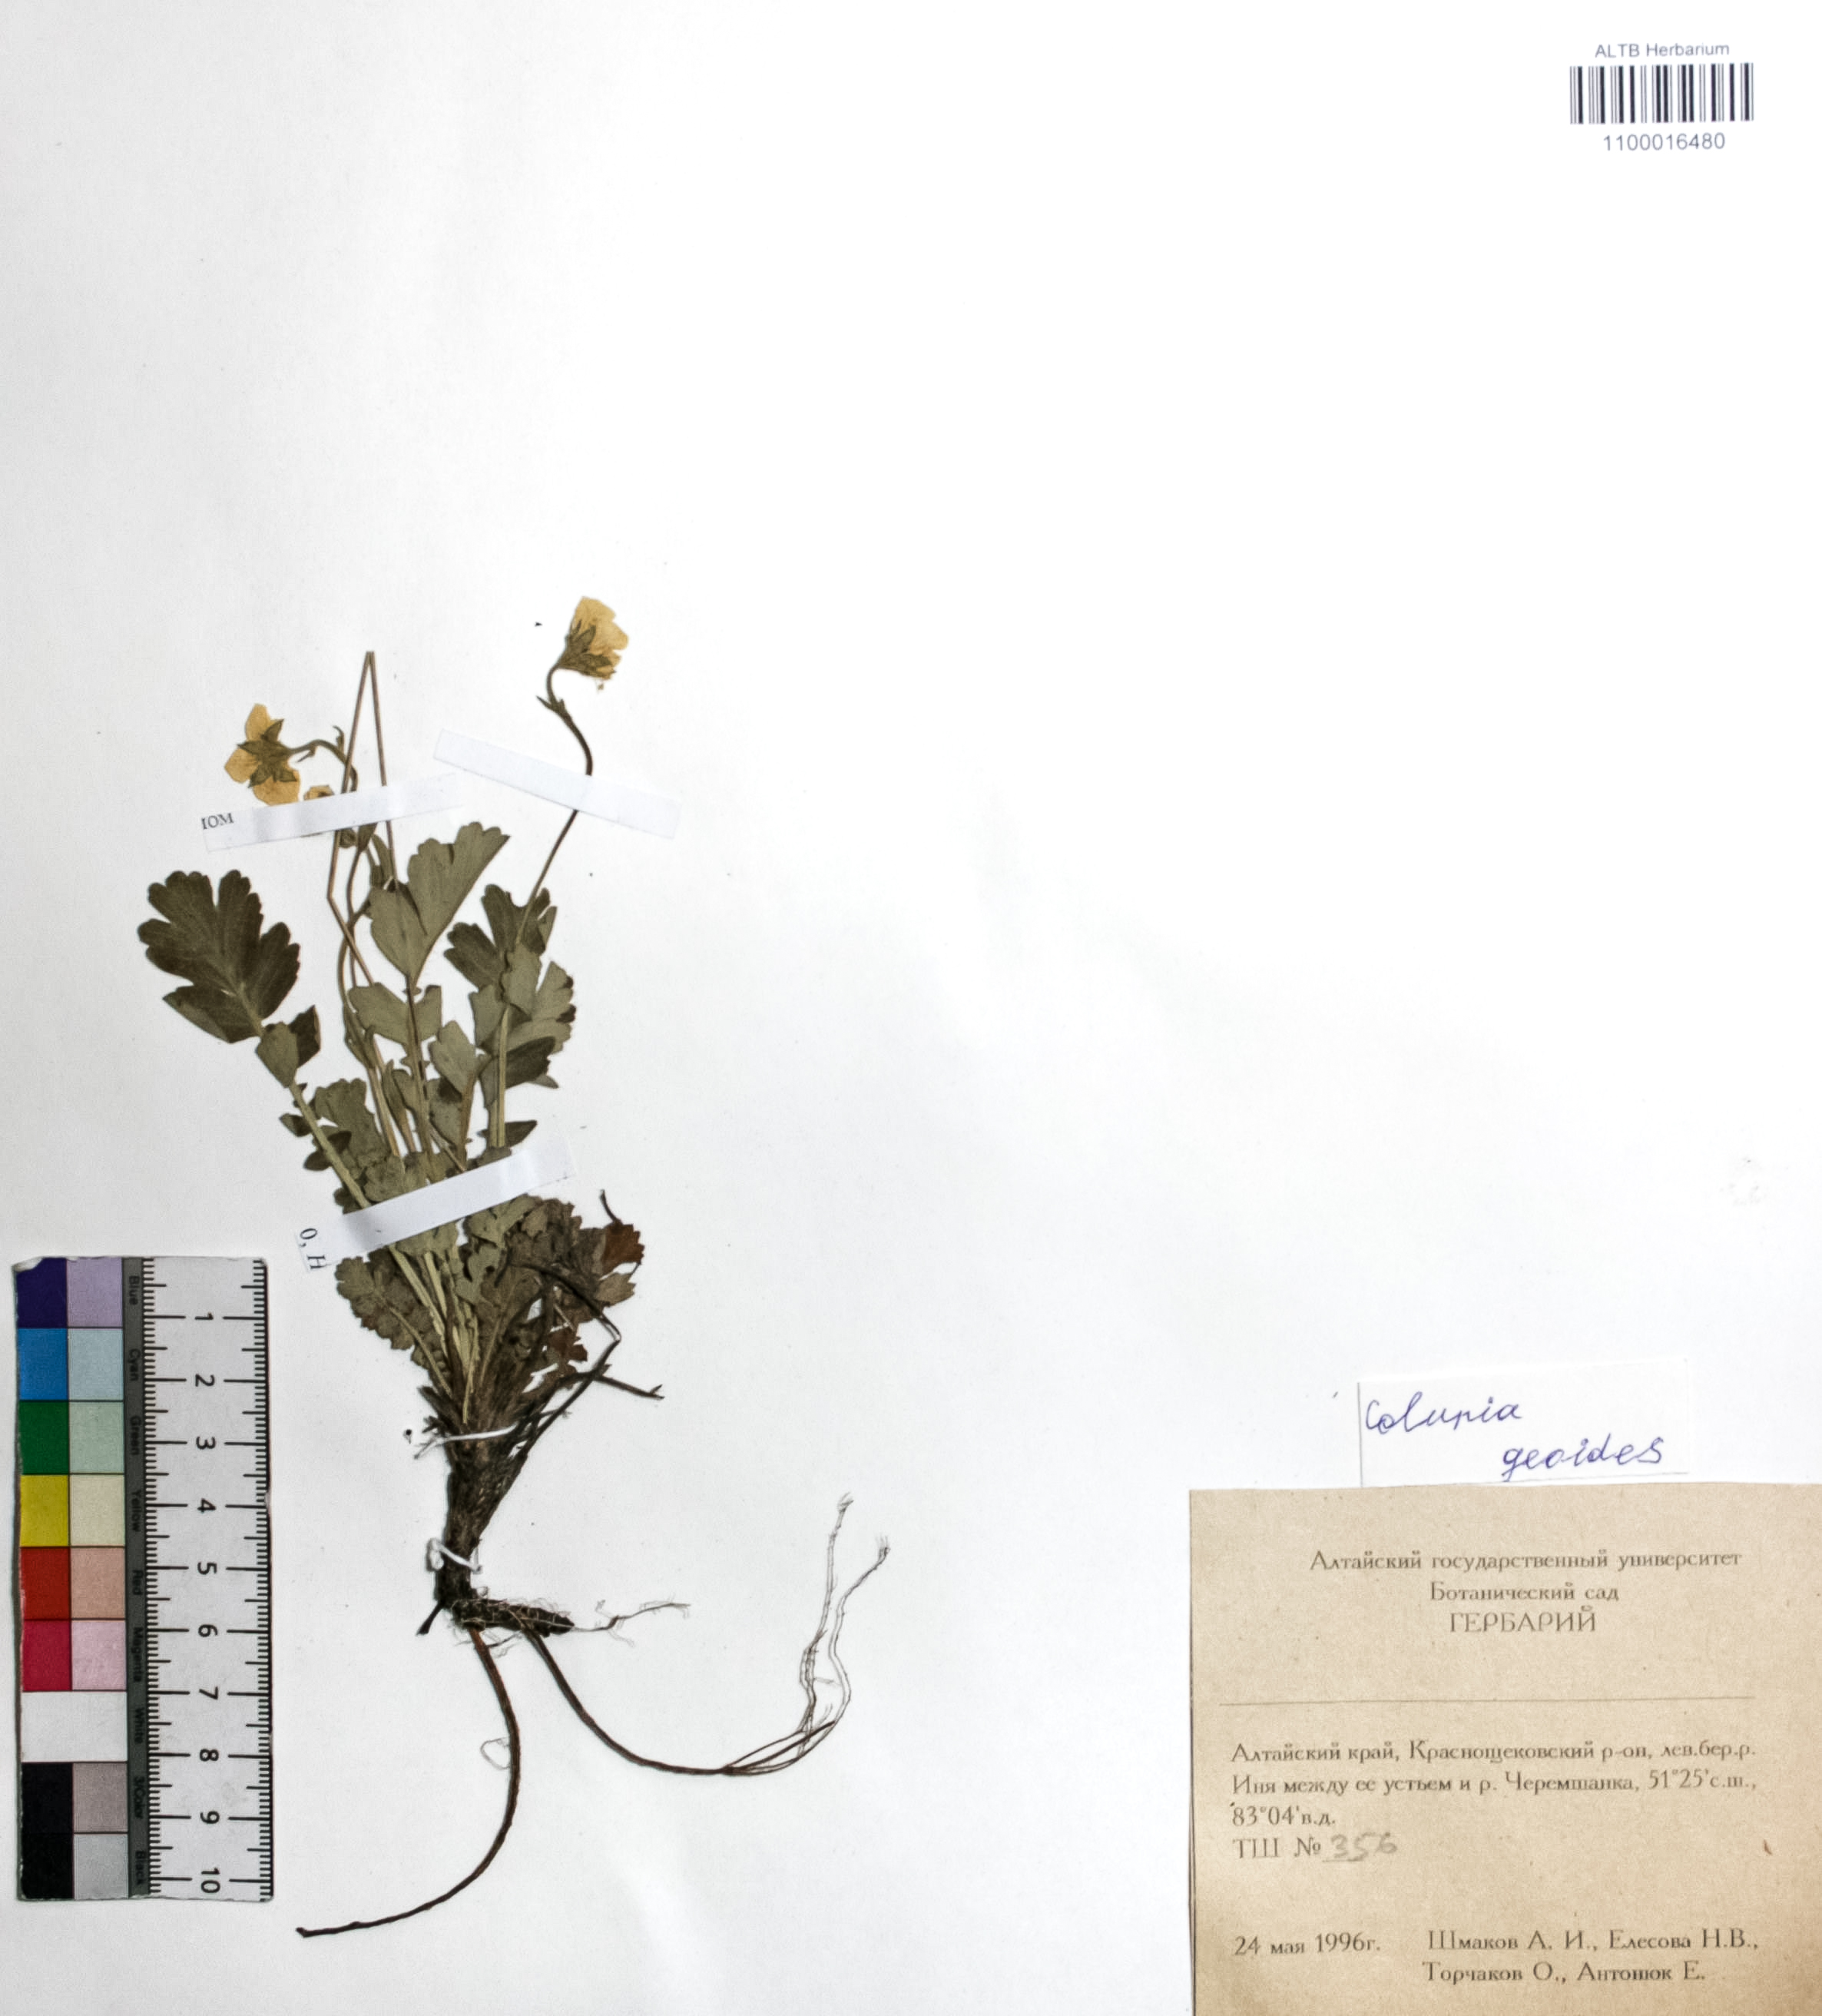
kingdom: Plantae
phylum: Tracheophyta
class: Magnoliopsida
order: Rosales
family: Rosaceae
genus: Geum
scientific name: Geum geoides
